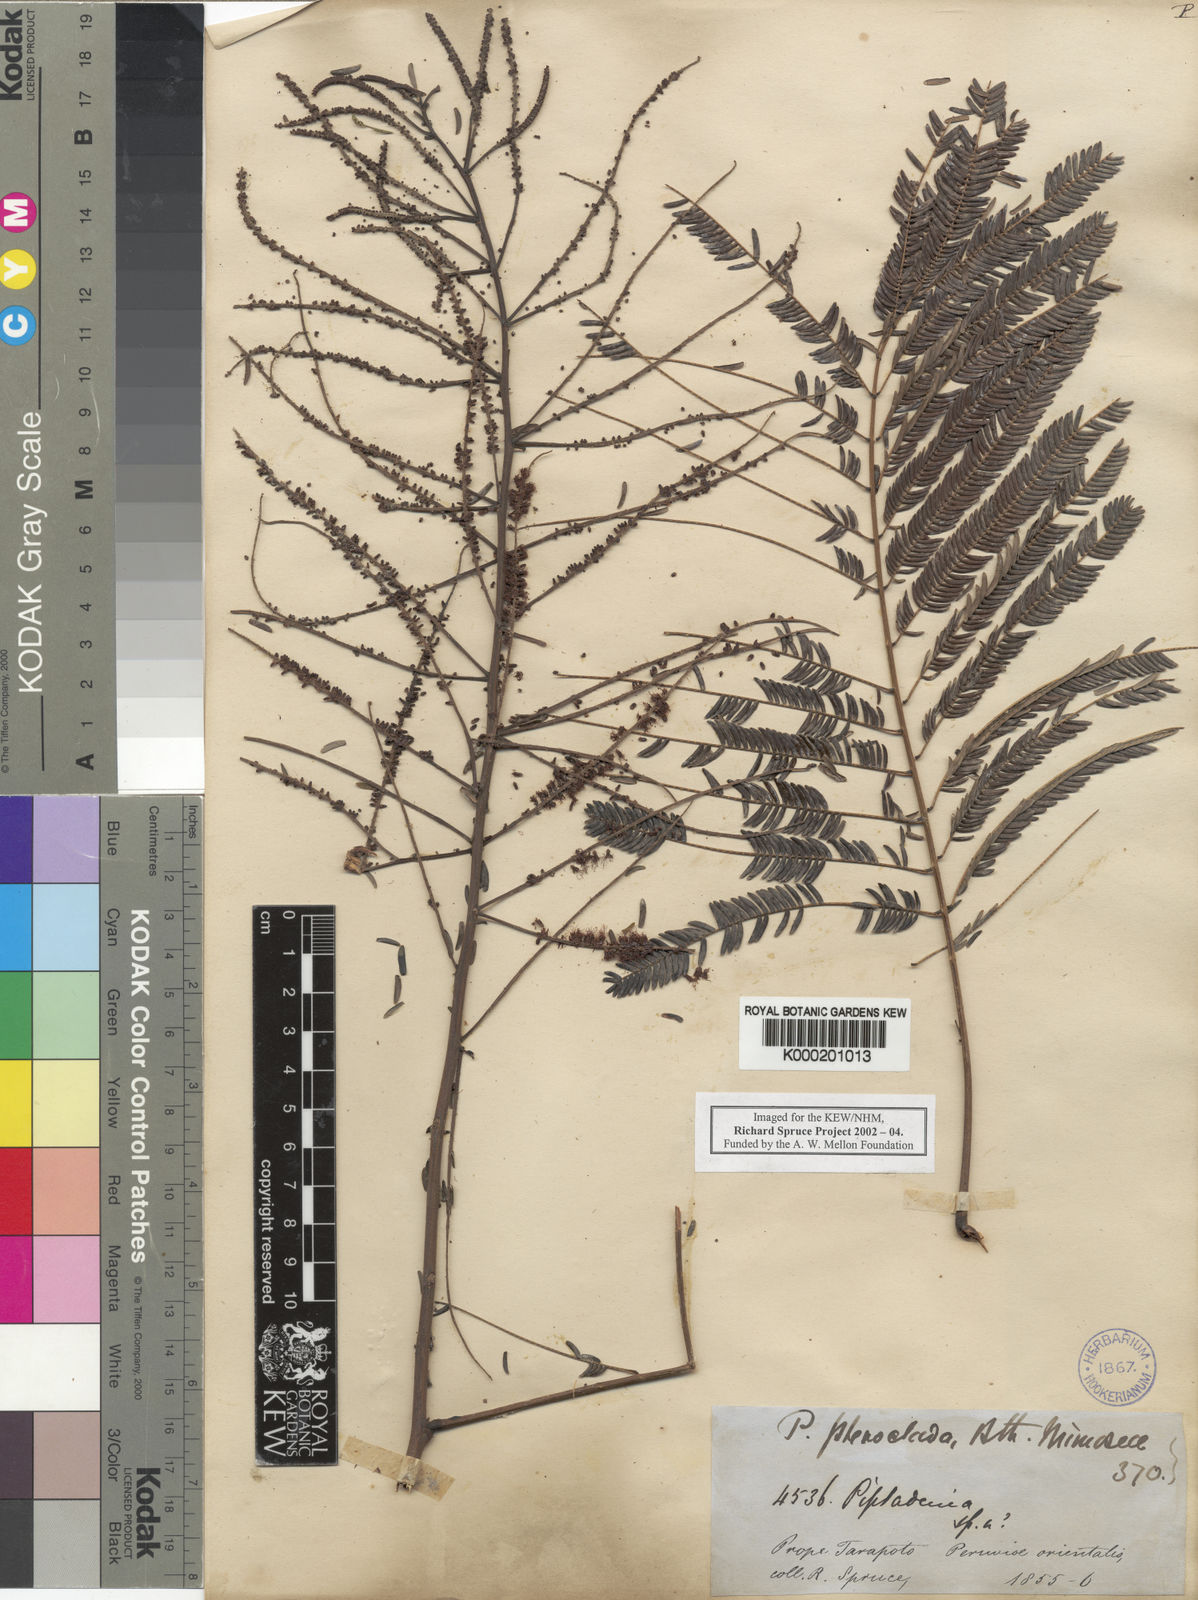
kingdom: Plantae
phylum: Tracheophyta
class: Magnoliopsida
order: Fabales
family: Fabaceae
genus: Piptadenia
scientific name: Piptadenia pteroclada
